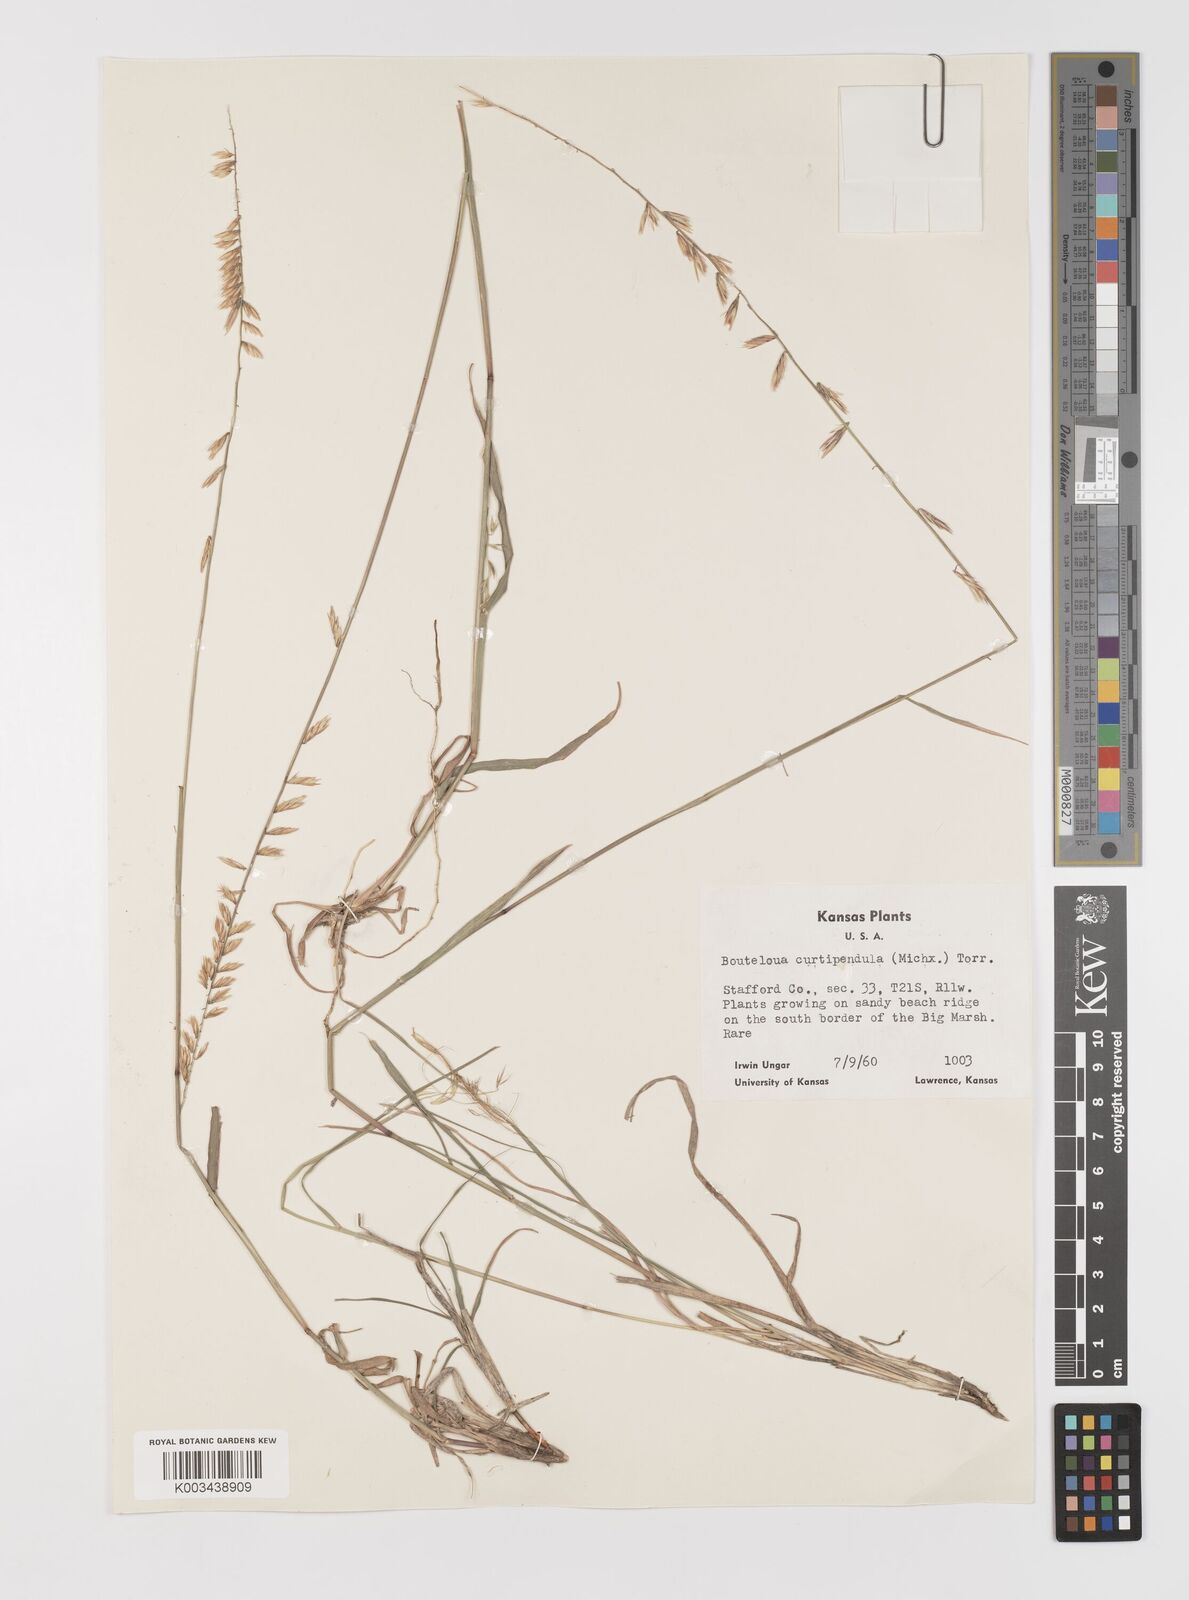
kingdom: Plantae
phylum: Tracheophyta
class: Liliopsida
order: Poales
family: Poaceae
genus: Bouteloua
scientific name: Bouteloua curtipendula
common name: Side-oats grama
